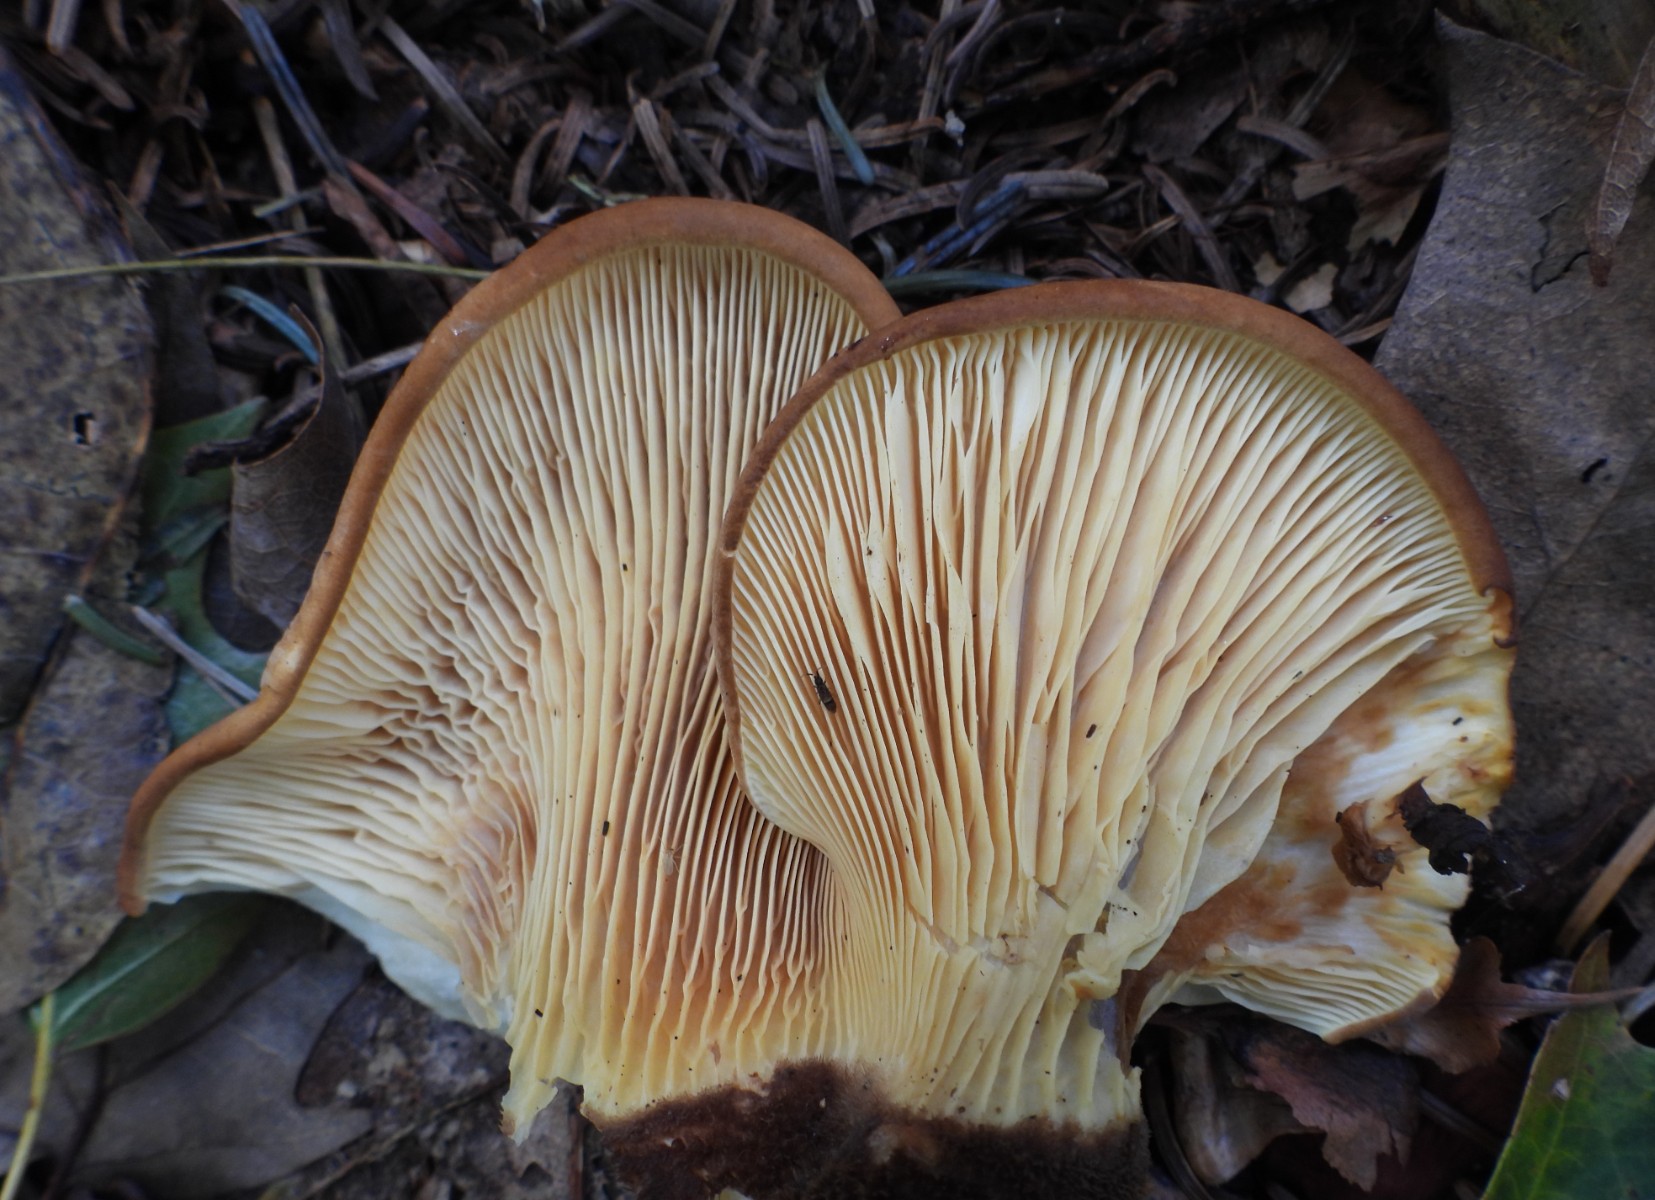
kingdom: Fungi
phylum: Basidiomycota
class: Agaricomycetes
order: Boletales
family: Tapinellaceae
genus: Tapinella
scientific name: Tapinella atrotomentosa
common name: sortfiltet viftesvamp
